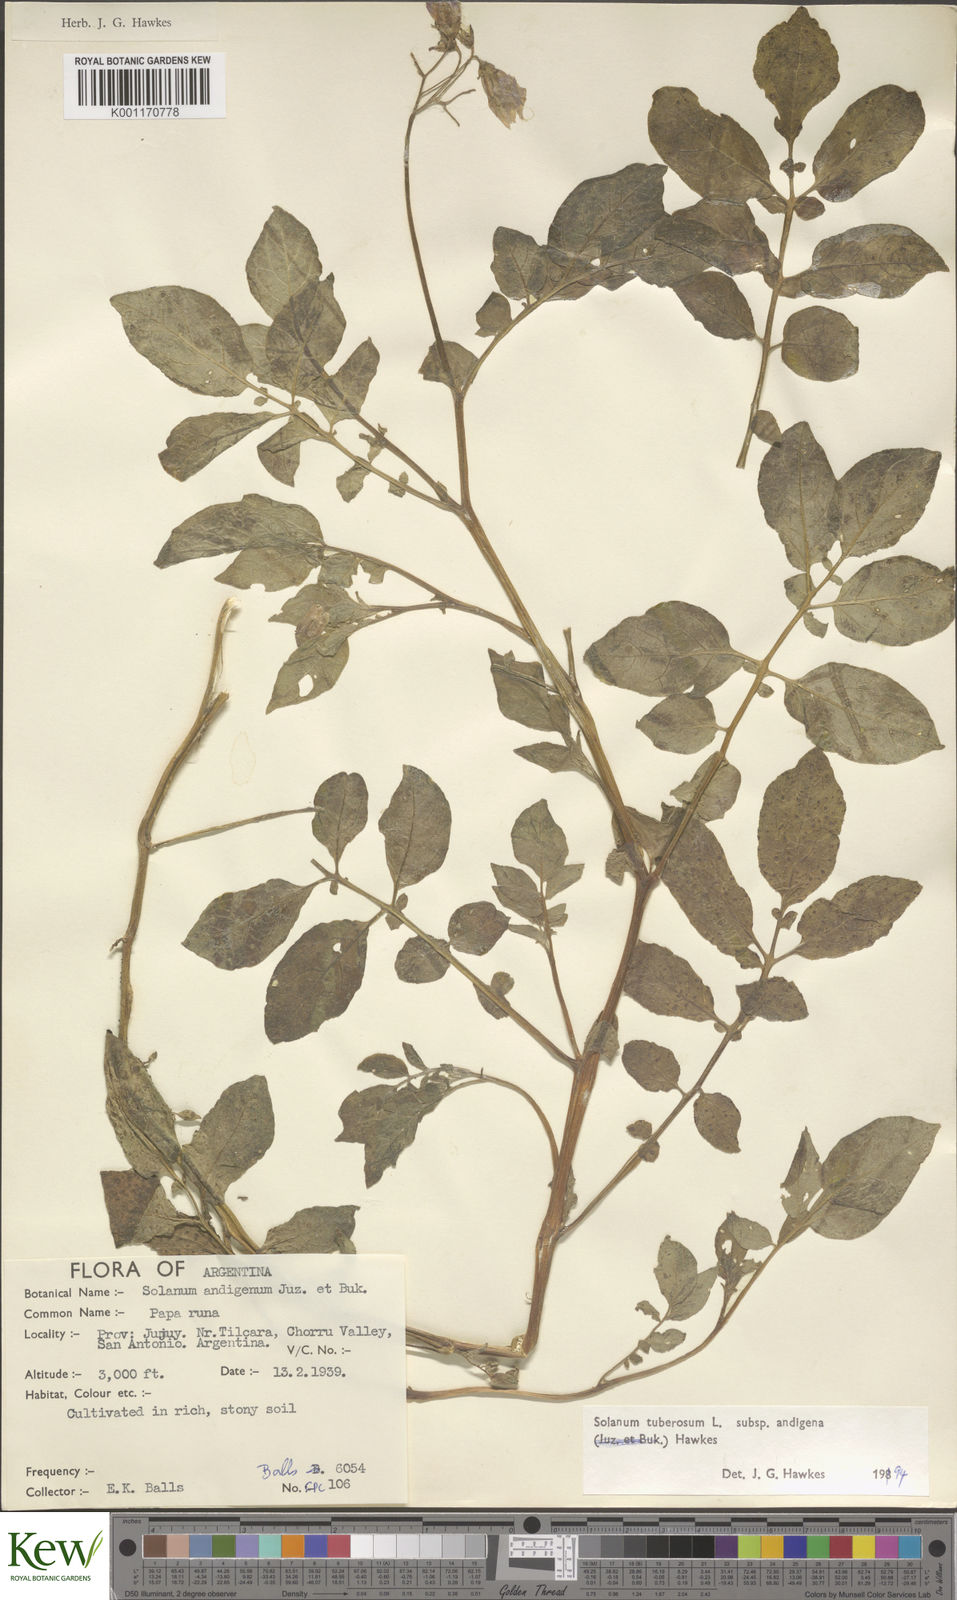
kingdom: Plantae
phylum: Tracheophyta
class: Magnoliopsida
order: Solanales
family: Solanaceae
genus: Solanum
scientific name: Solanum tuberosum
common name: Potato
